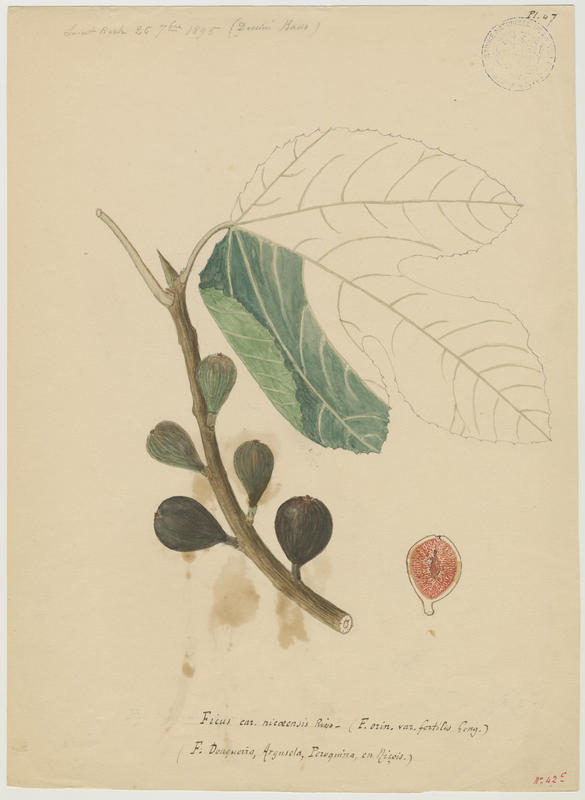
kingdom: Plantae
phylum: Tracheophyta
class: Magnoliopsida
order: Rosales
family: Moraceae
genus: Ficus
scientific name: Ficus carica
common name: Fig
